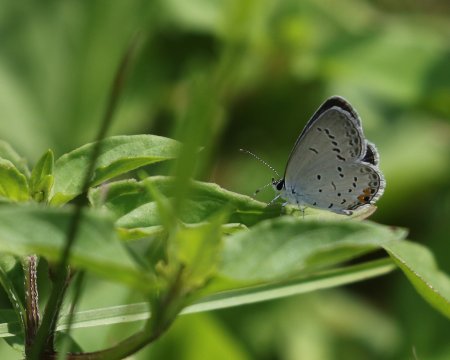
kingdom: Animalia
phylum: Arthropoda
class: Insecta
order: Lepidoptera
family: Lycaenidae
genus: Elkalyce
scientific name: Elkalyce comyntas
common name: Eastern Tailed-Blue
